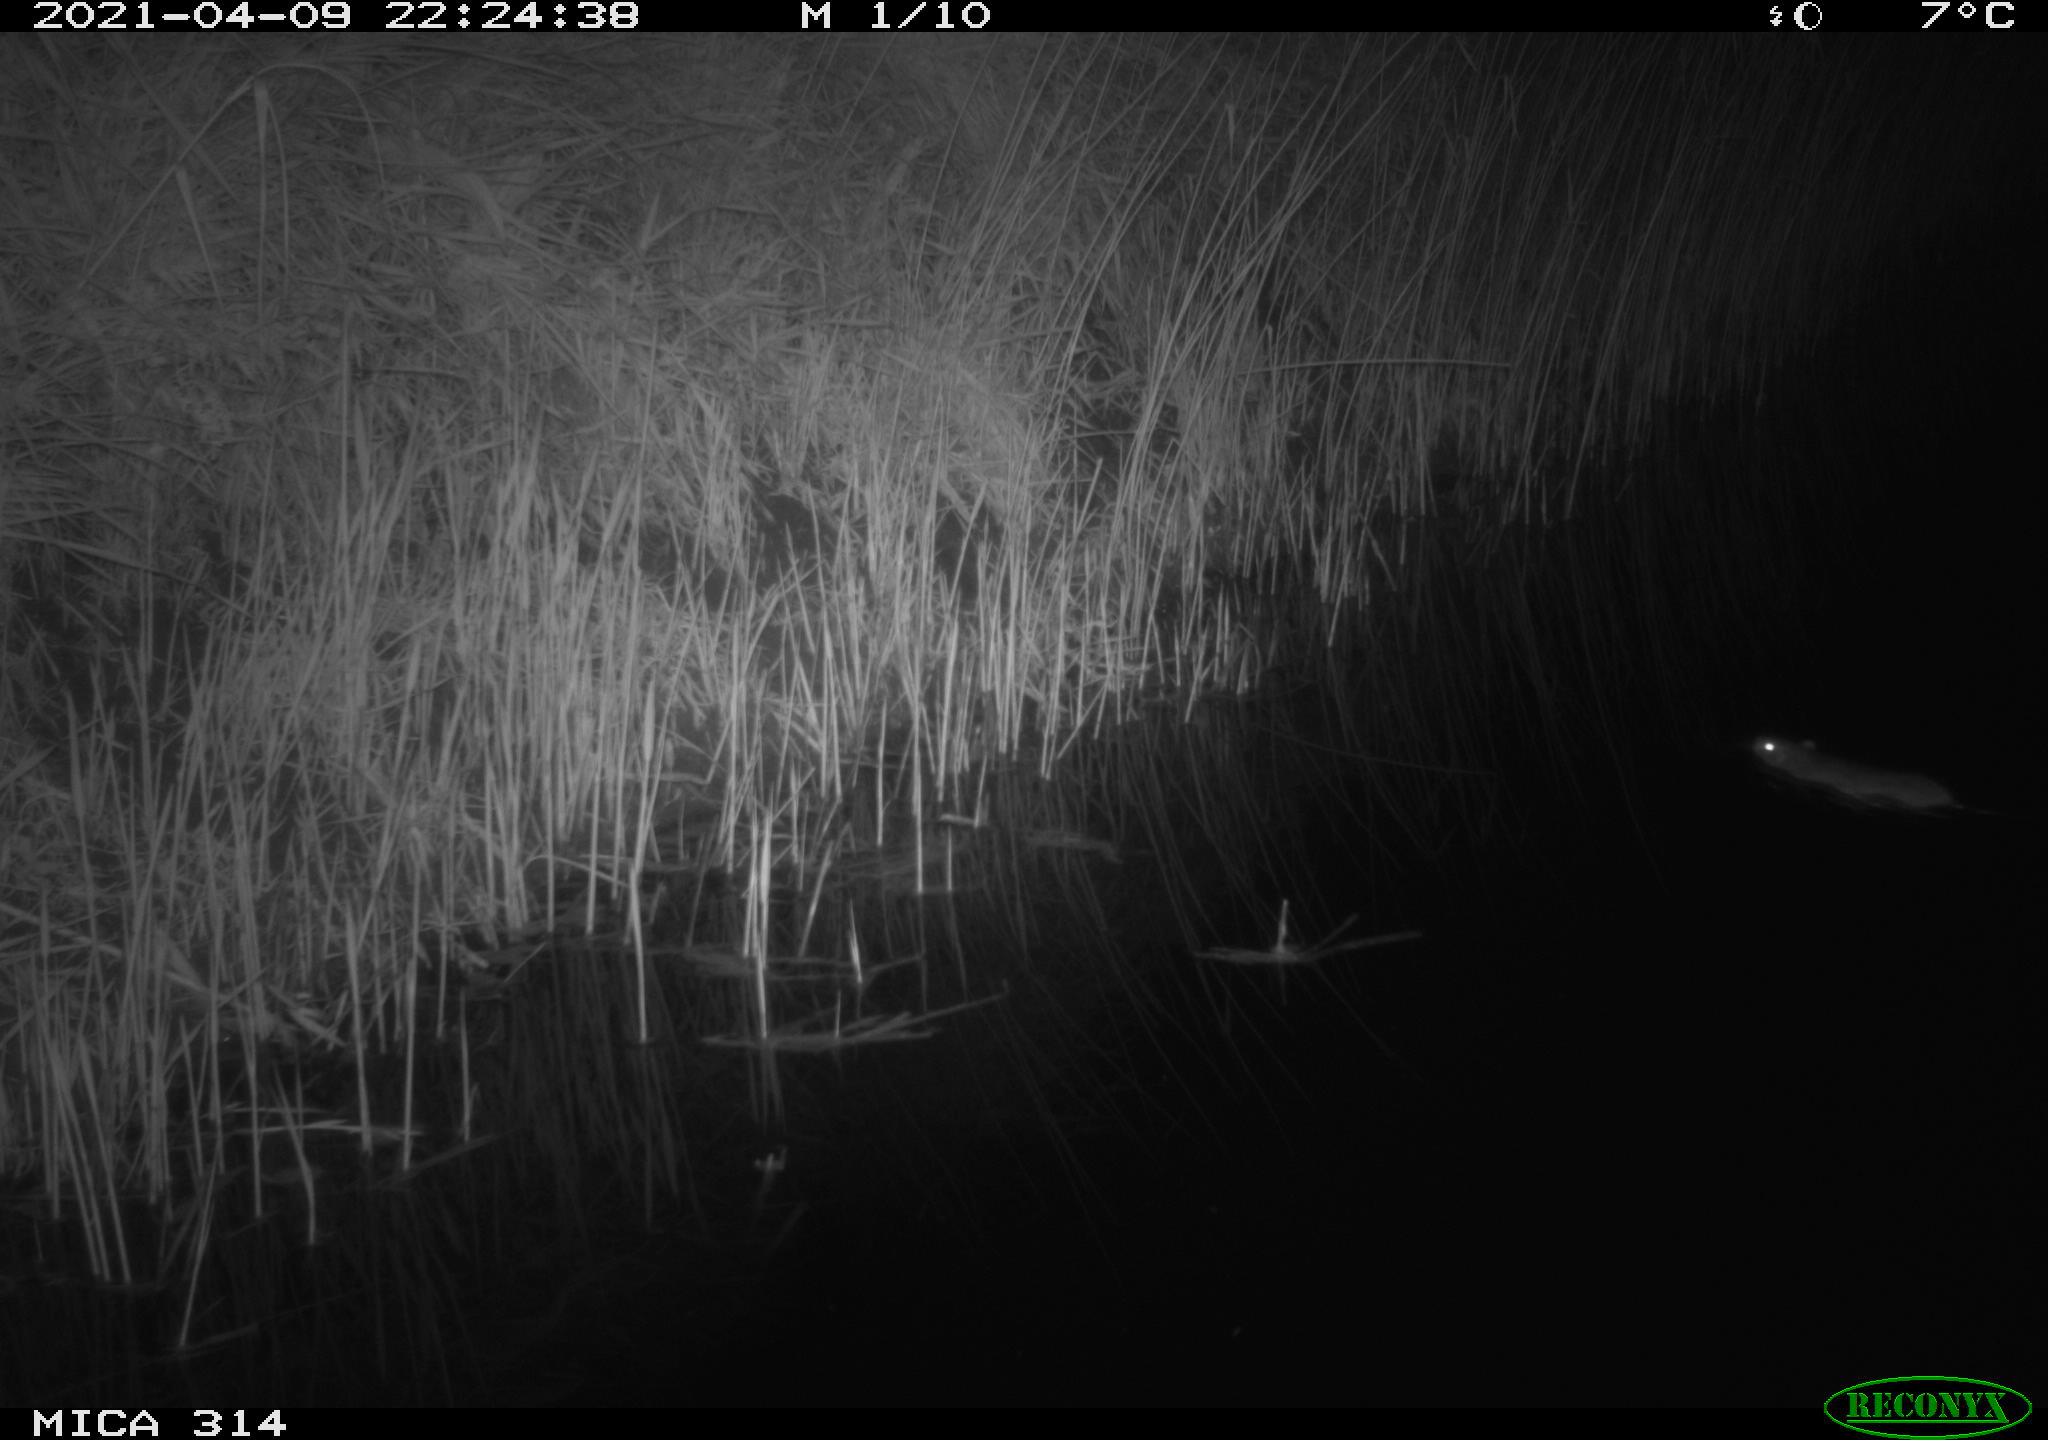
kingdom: Animalia
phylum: Chordata
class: Mammalia
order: Rodentia
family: Muridae
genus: Rattus
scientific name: Rattus norvegicus
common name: Brown rat
